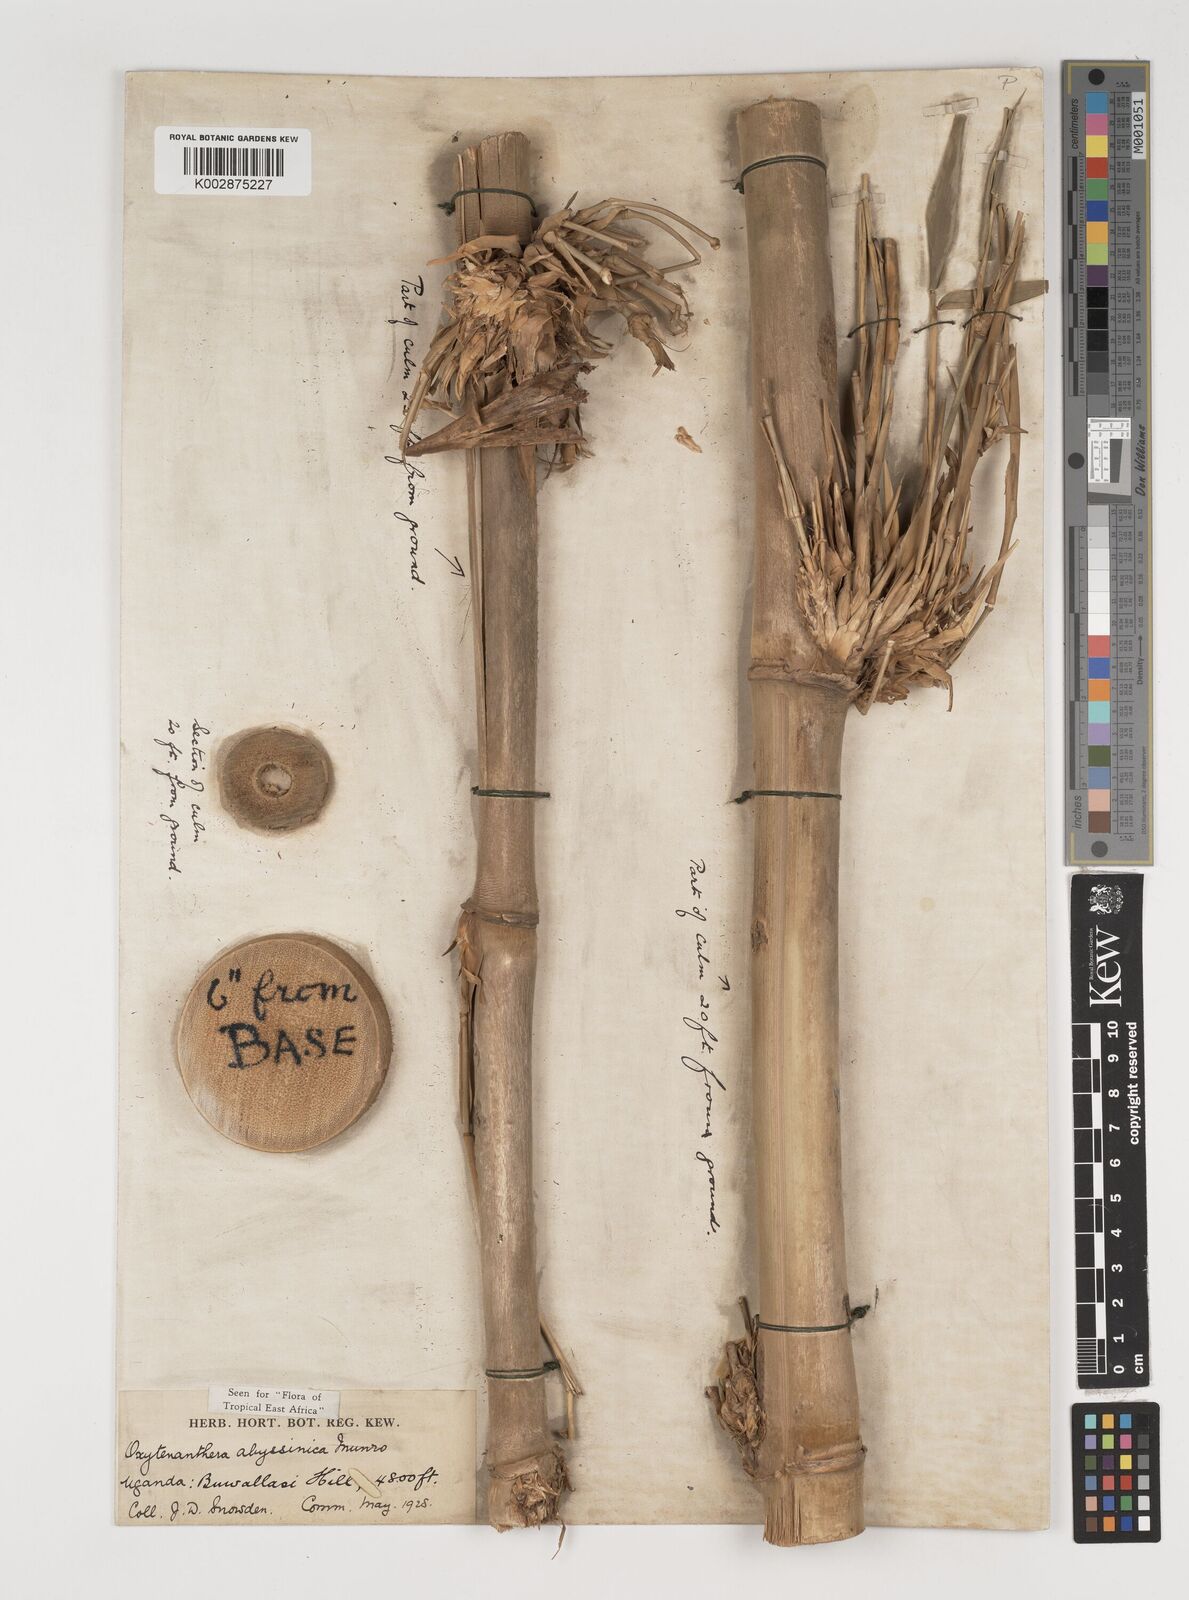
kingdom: Plantae
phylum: Tracheophyta
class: Liliopsida
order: Poales
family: Poaceae
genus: Oxytenanthera
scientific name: Oxytenanthera abyssinica
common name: Wine bamboo
